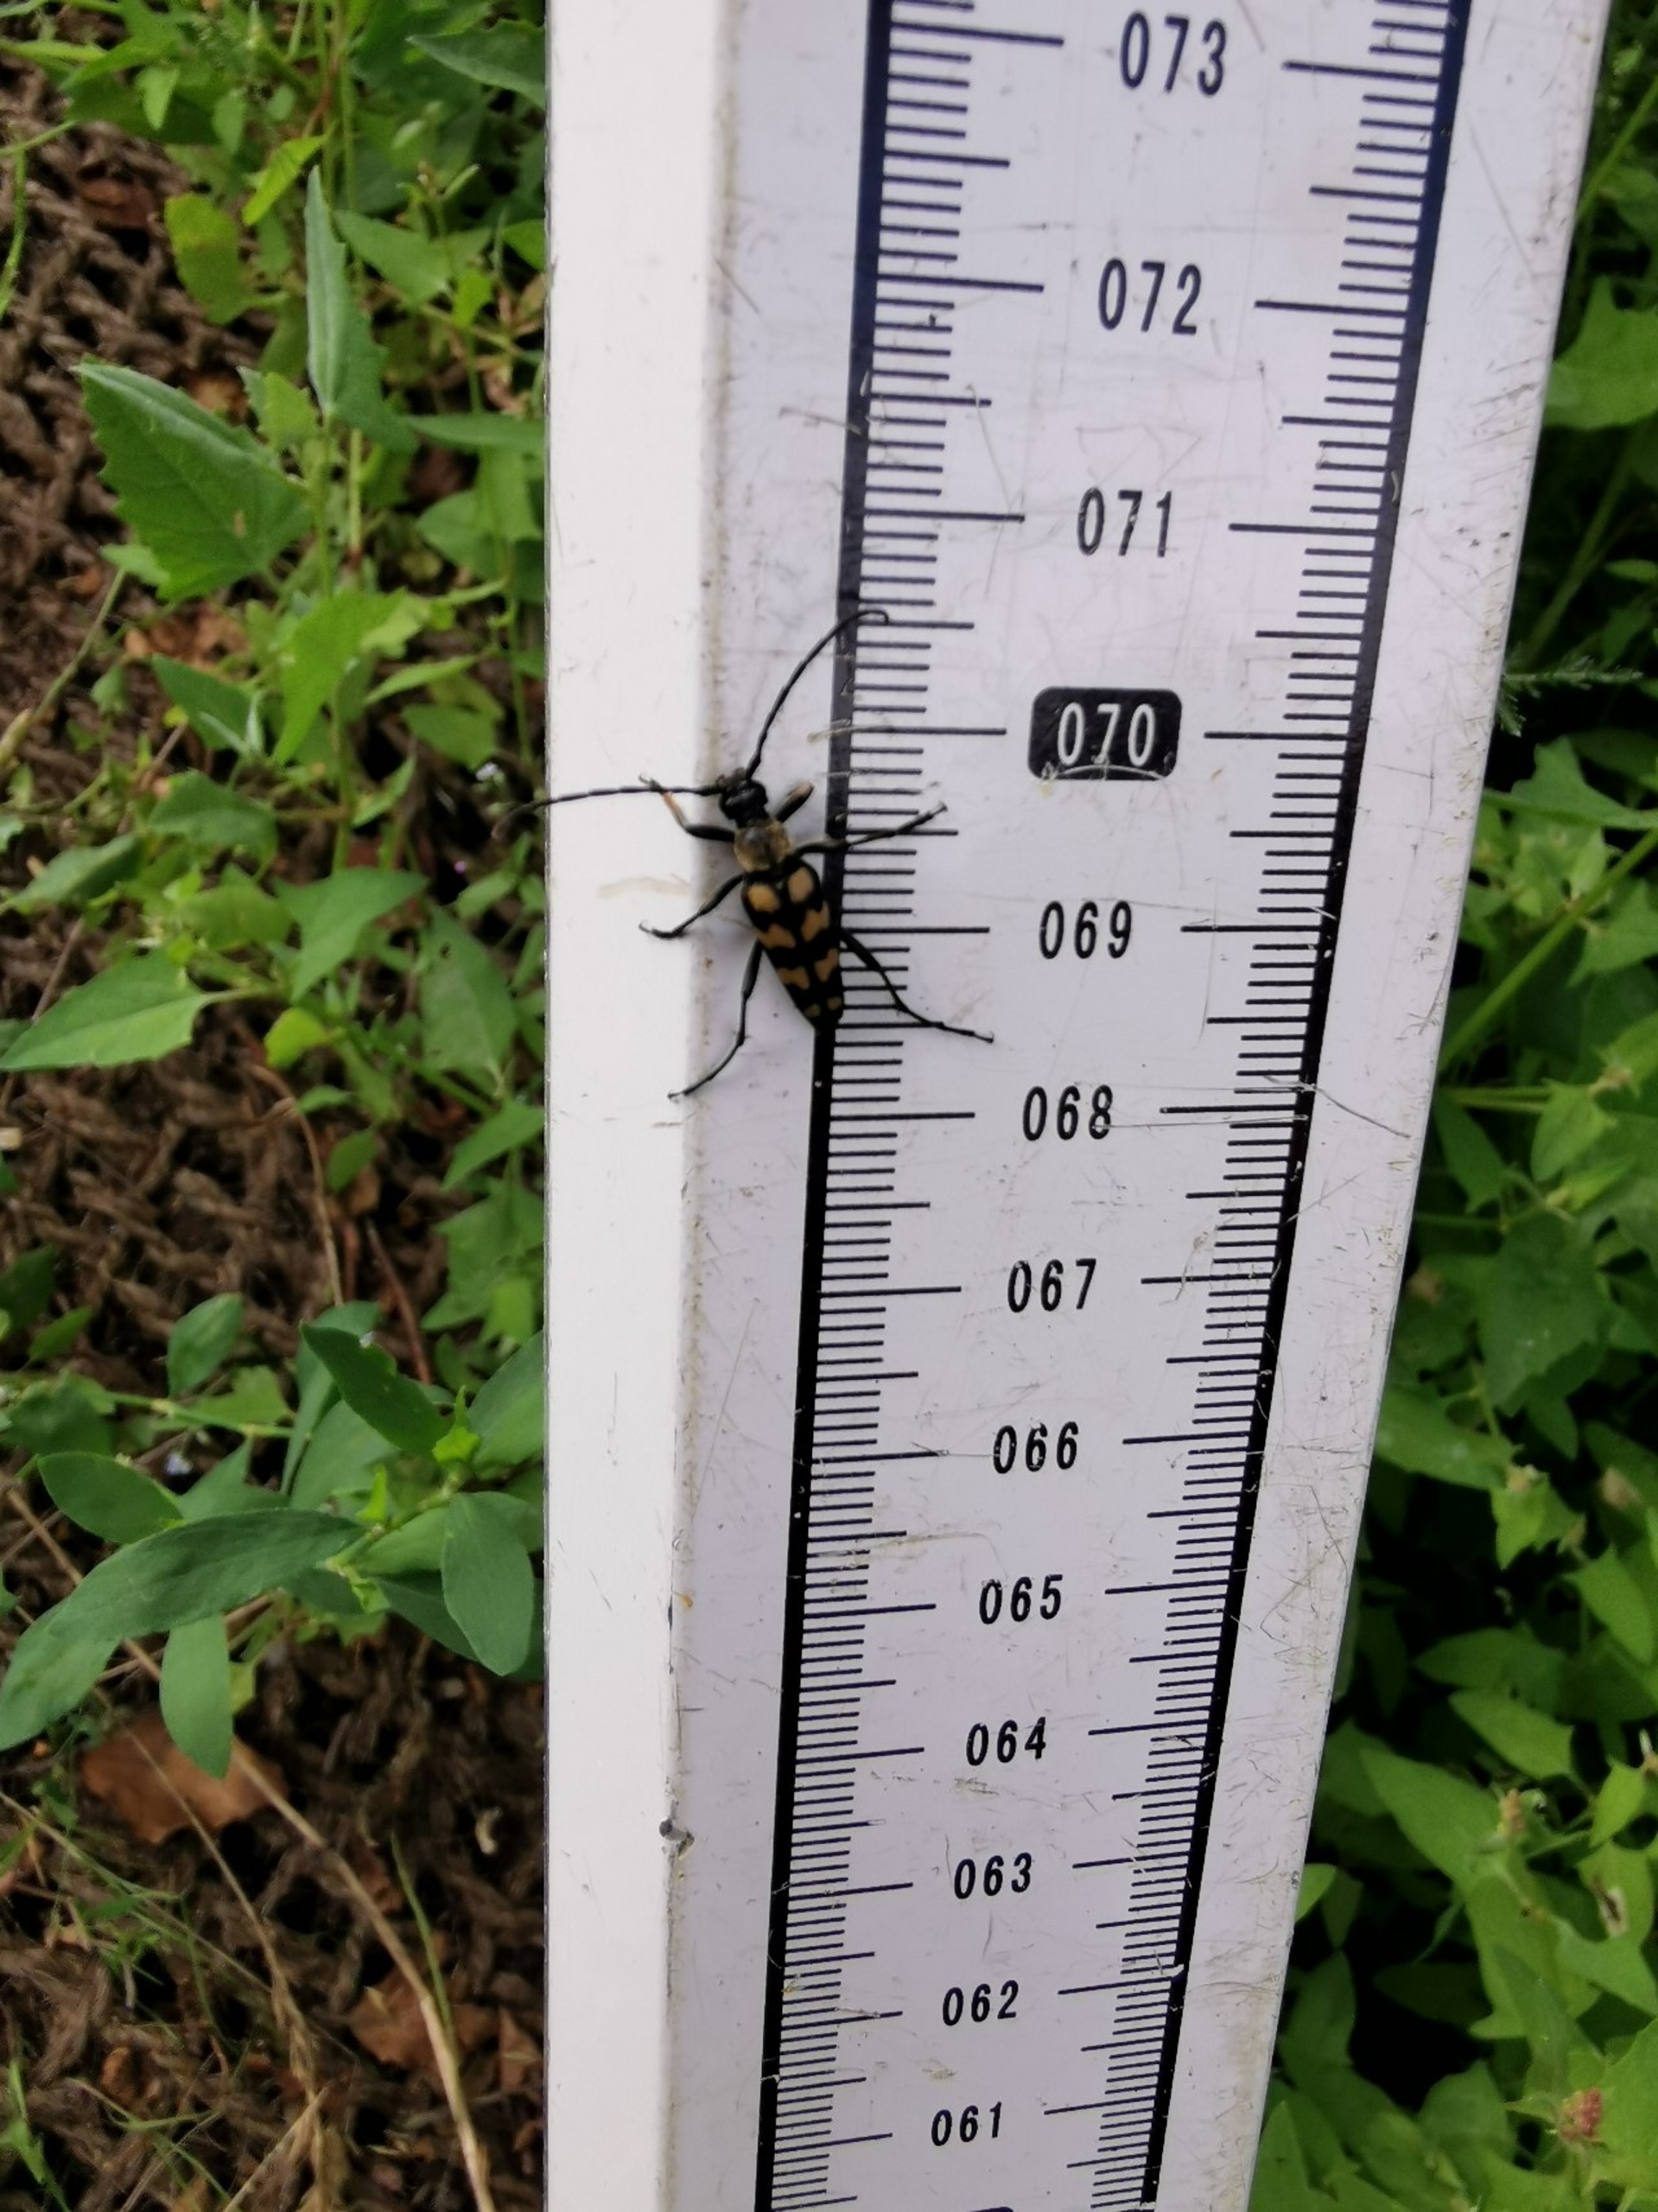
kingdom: Animalia
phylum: Arthropoda
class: Insecta
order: Coleoptera
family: Cerambycidae
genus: Leptura
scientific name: Leptura quadrifasciata
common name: Firebåndet blomsterbuk
